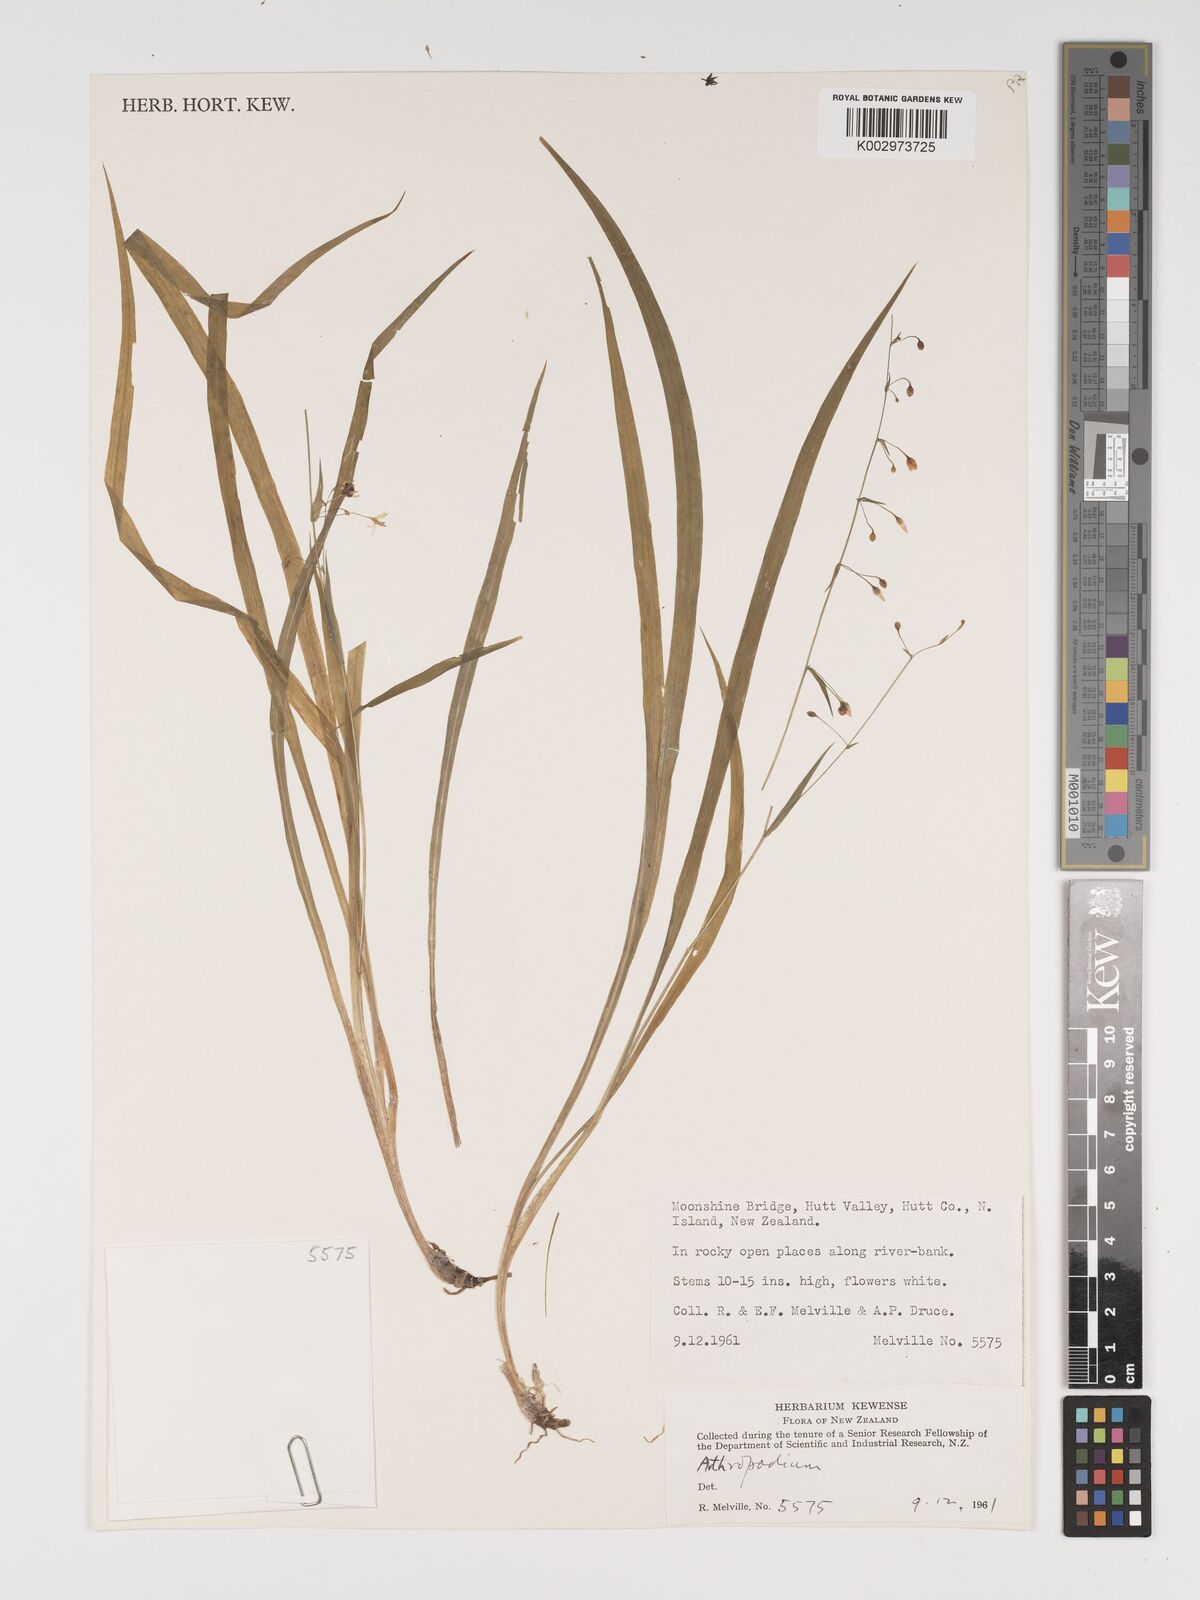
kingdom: Plantae
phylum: Tracheophyta
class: Liliopsida
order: Asparagales
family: Asparagaceae
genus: Arthropodium
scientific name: Arthropodium candidum
